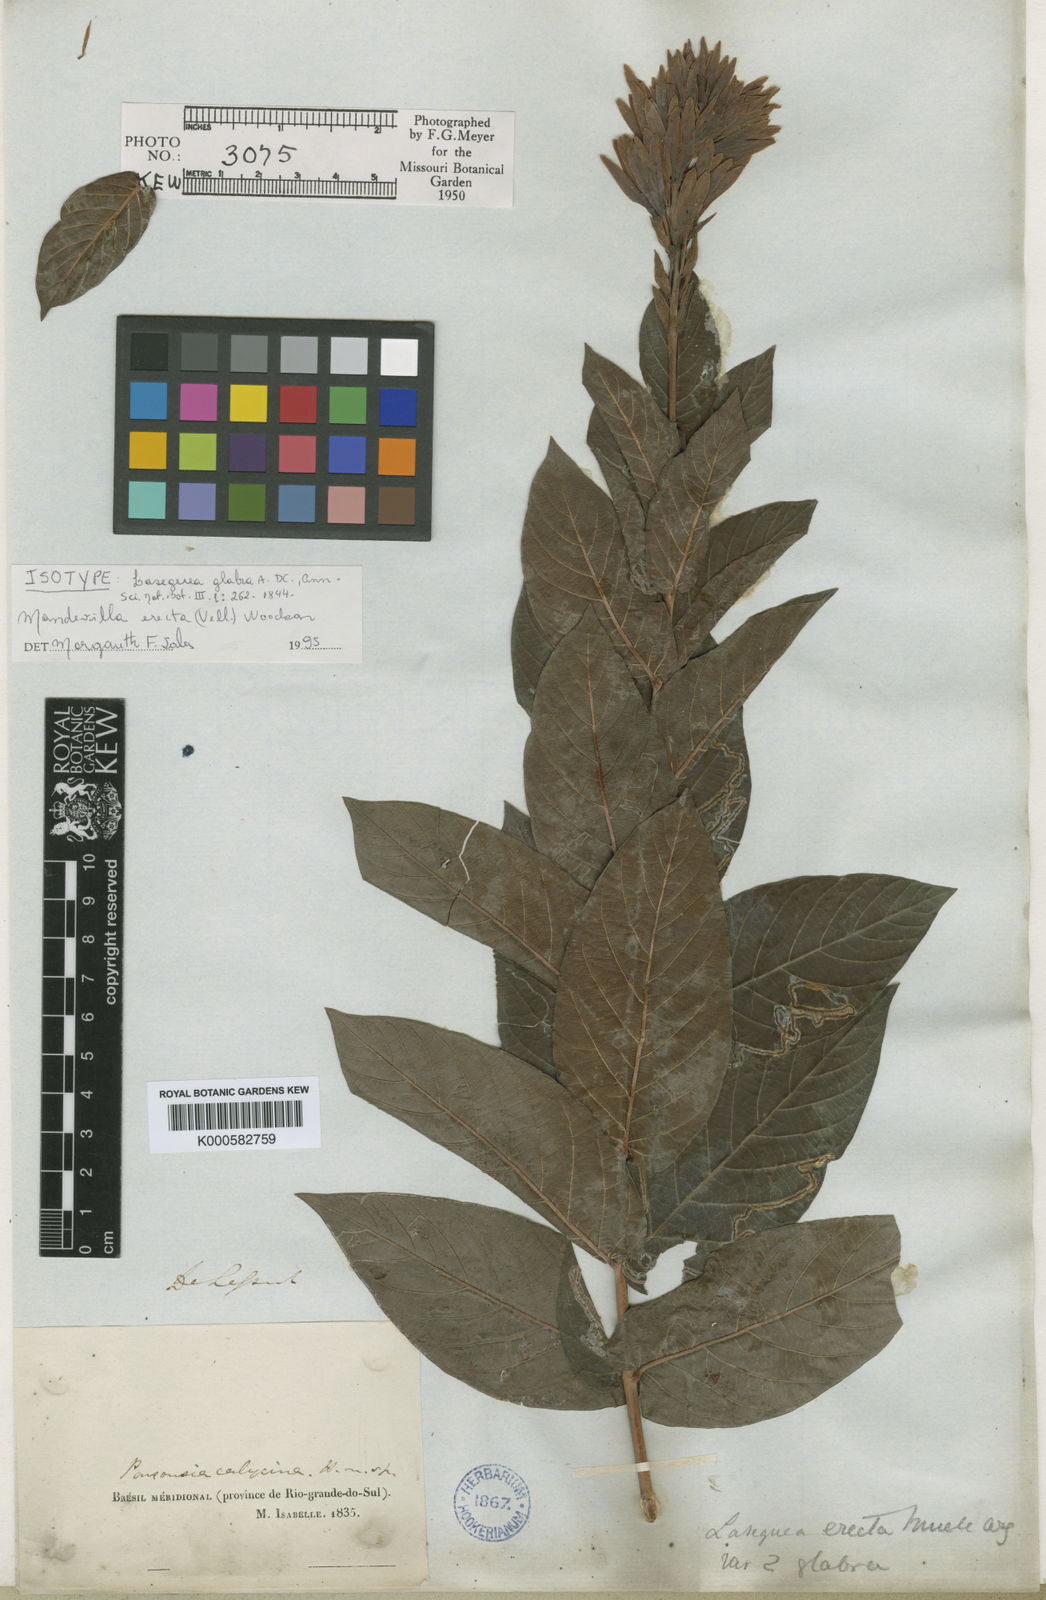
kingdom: Plantae
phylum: Tracheophyta
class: Magnoliopsida
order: Gentianales
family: Apocynaceae
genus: Mandevilla
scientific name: Mandevilla emarginata
